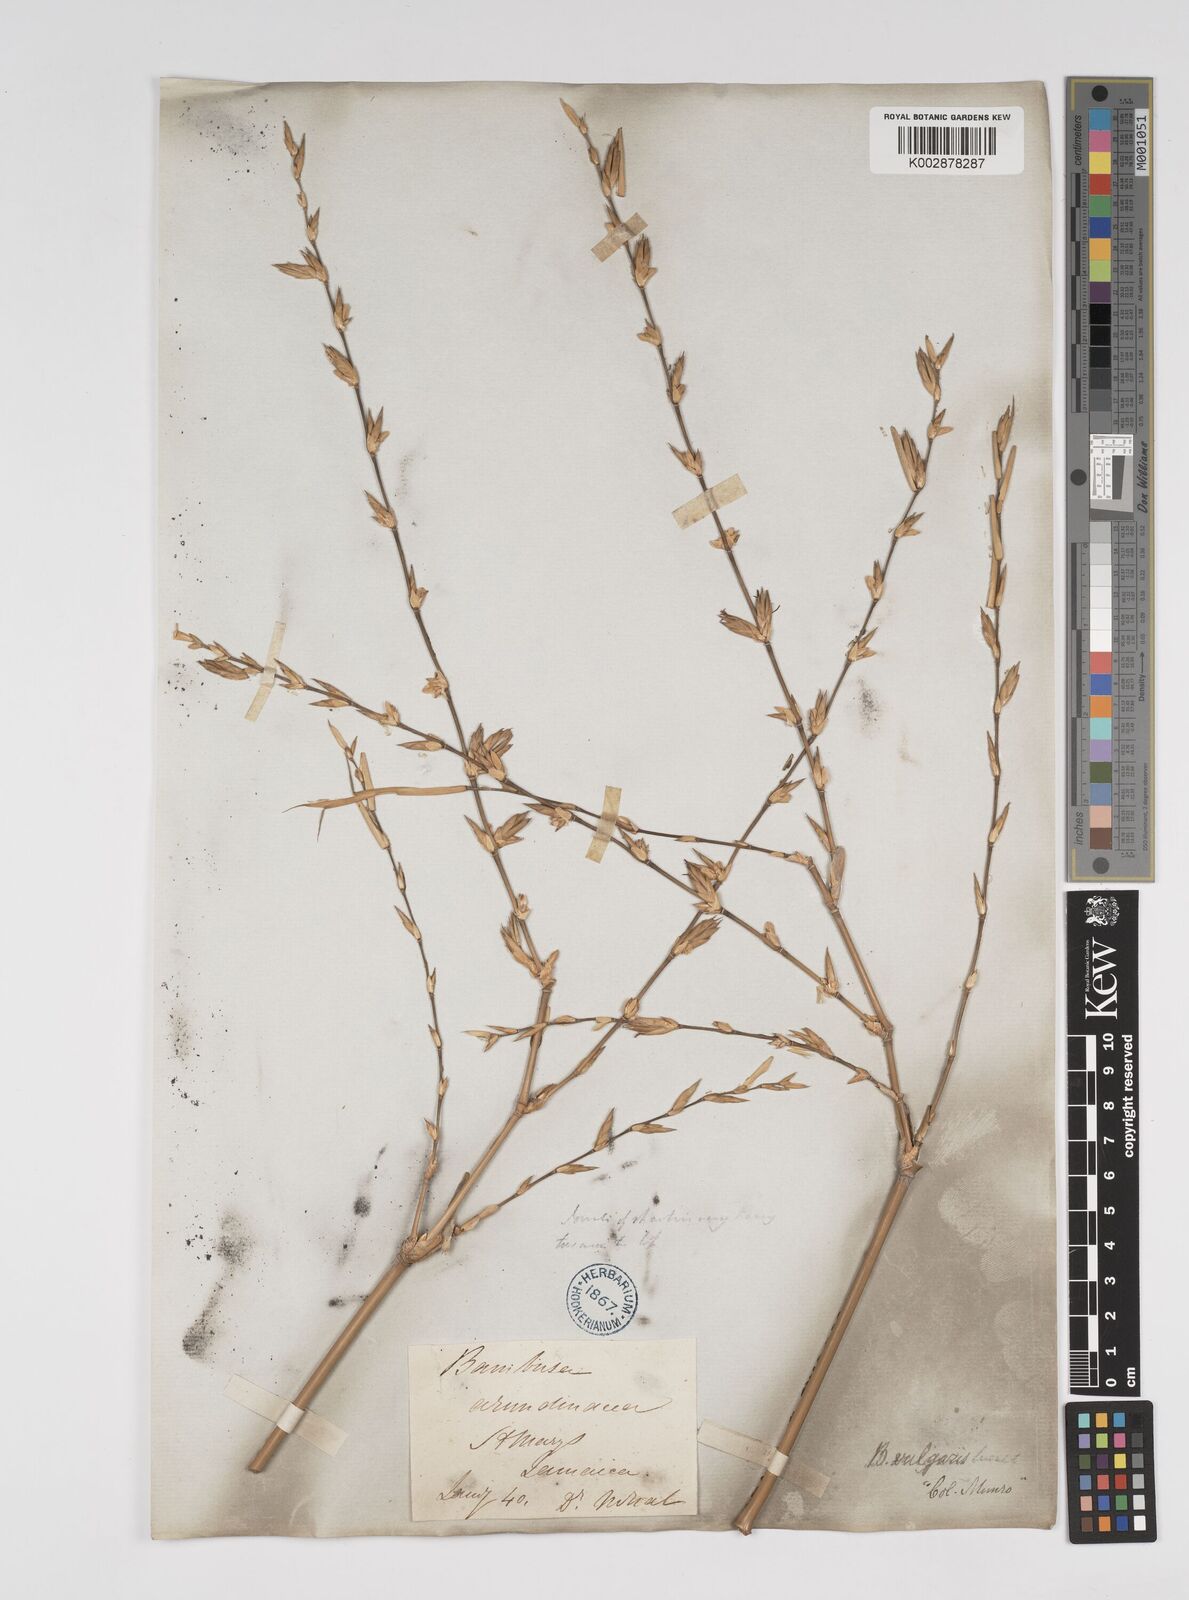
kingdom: Plantae
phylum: Tracheophyta
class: Liliopsida
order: Poales
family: Poaceae
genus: Bambusa
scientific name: Bambusa vulgaris
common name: Common bamboo
